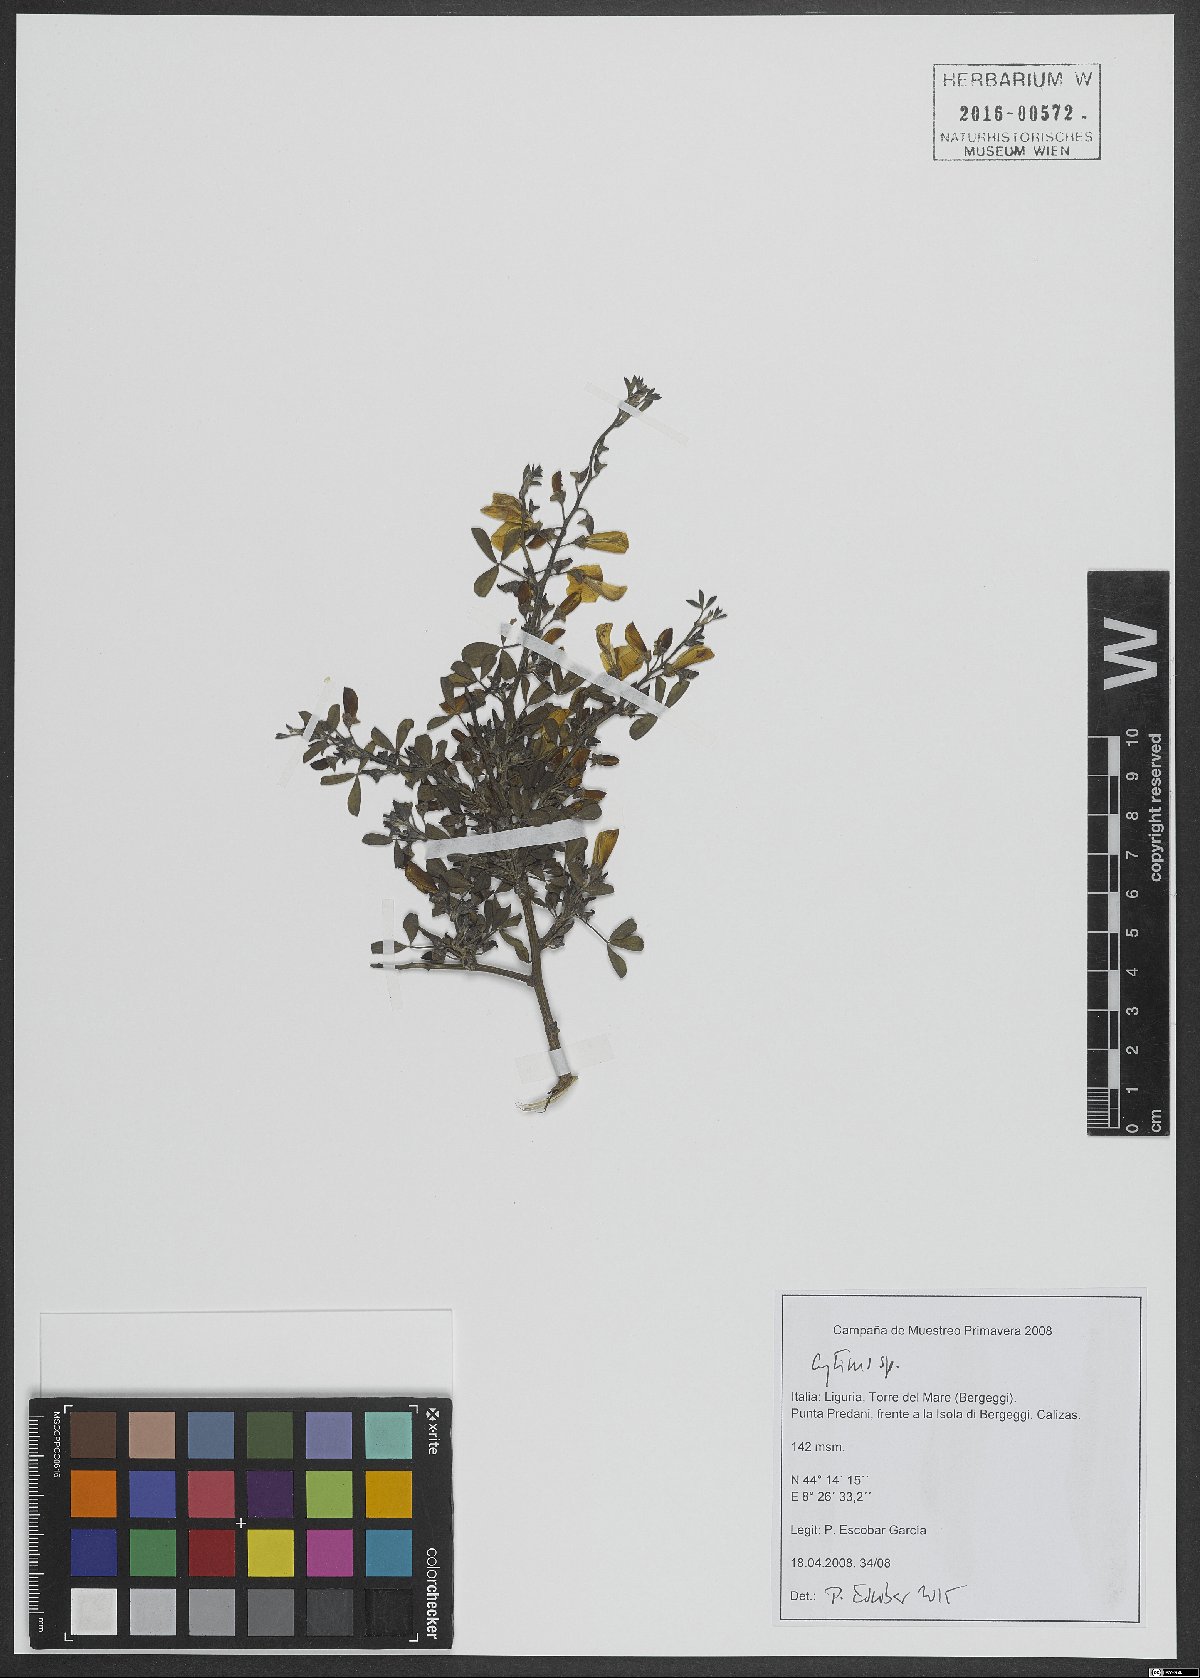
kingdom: Plantae
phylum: Tracheophyta
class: Magnoliopsida
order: Fabales
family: Fabaceae
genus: Cytisus
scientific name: Cytisus
